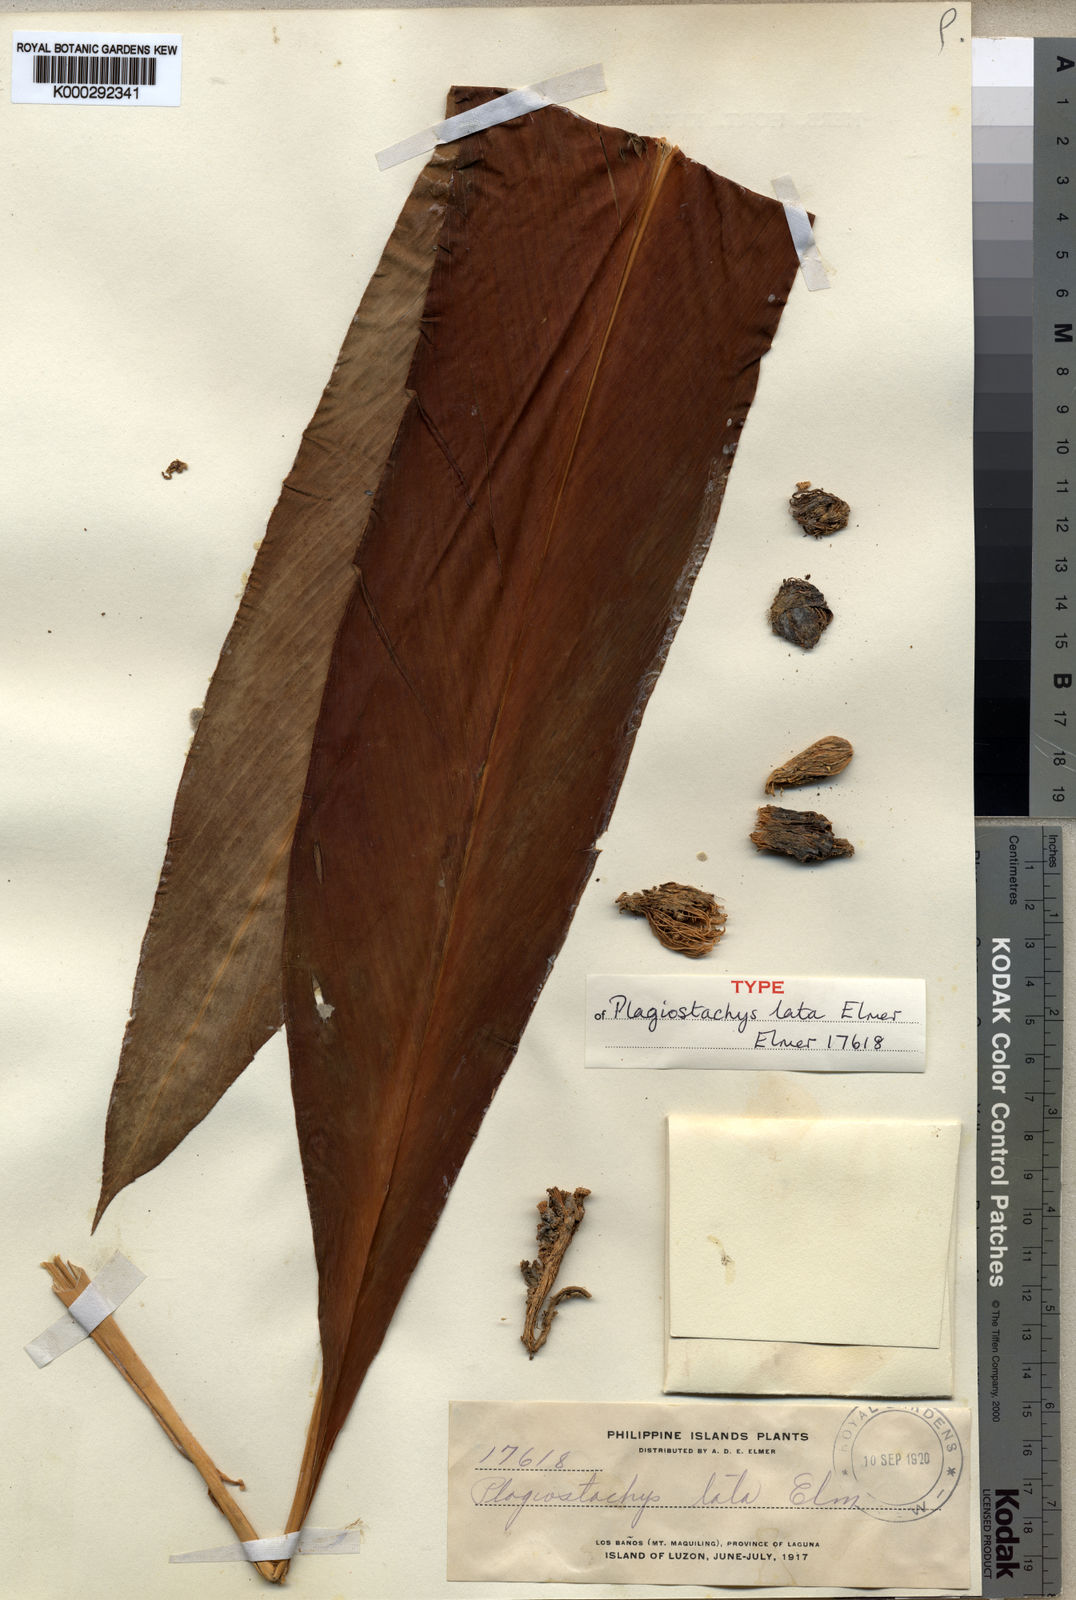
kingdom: Plantae
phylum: Tracheophyta
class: Liliopsida
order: Zingiberales
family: Zingiberaceae
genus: Plagiostachys
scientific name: Plagiostachys
